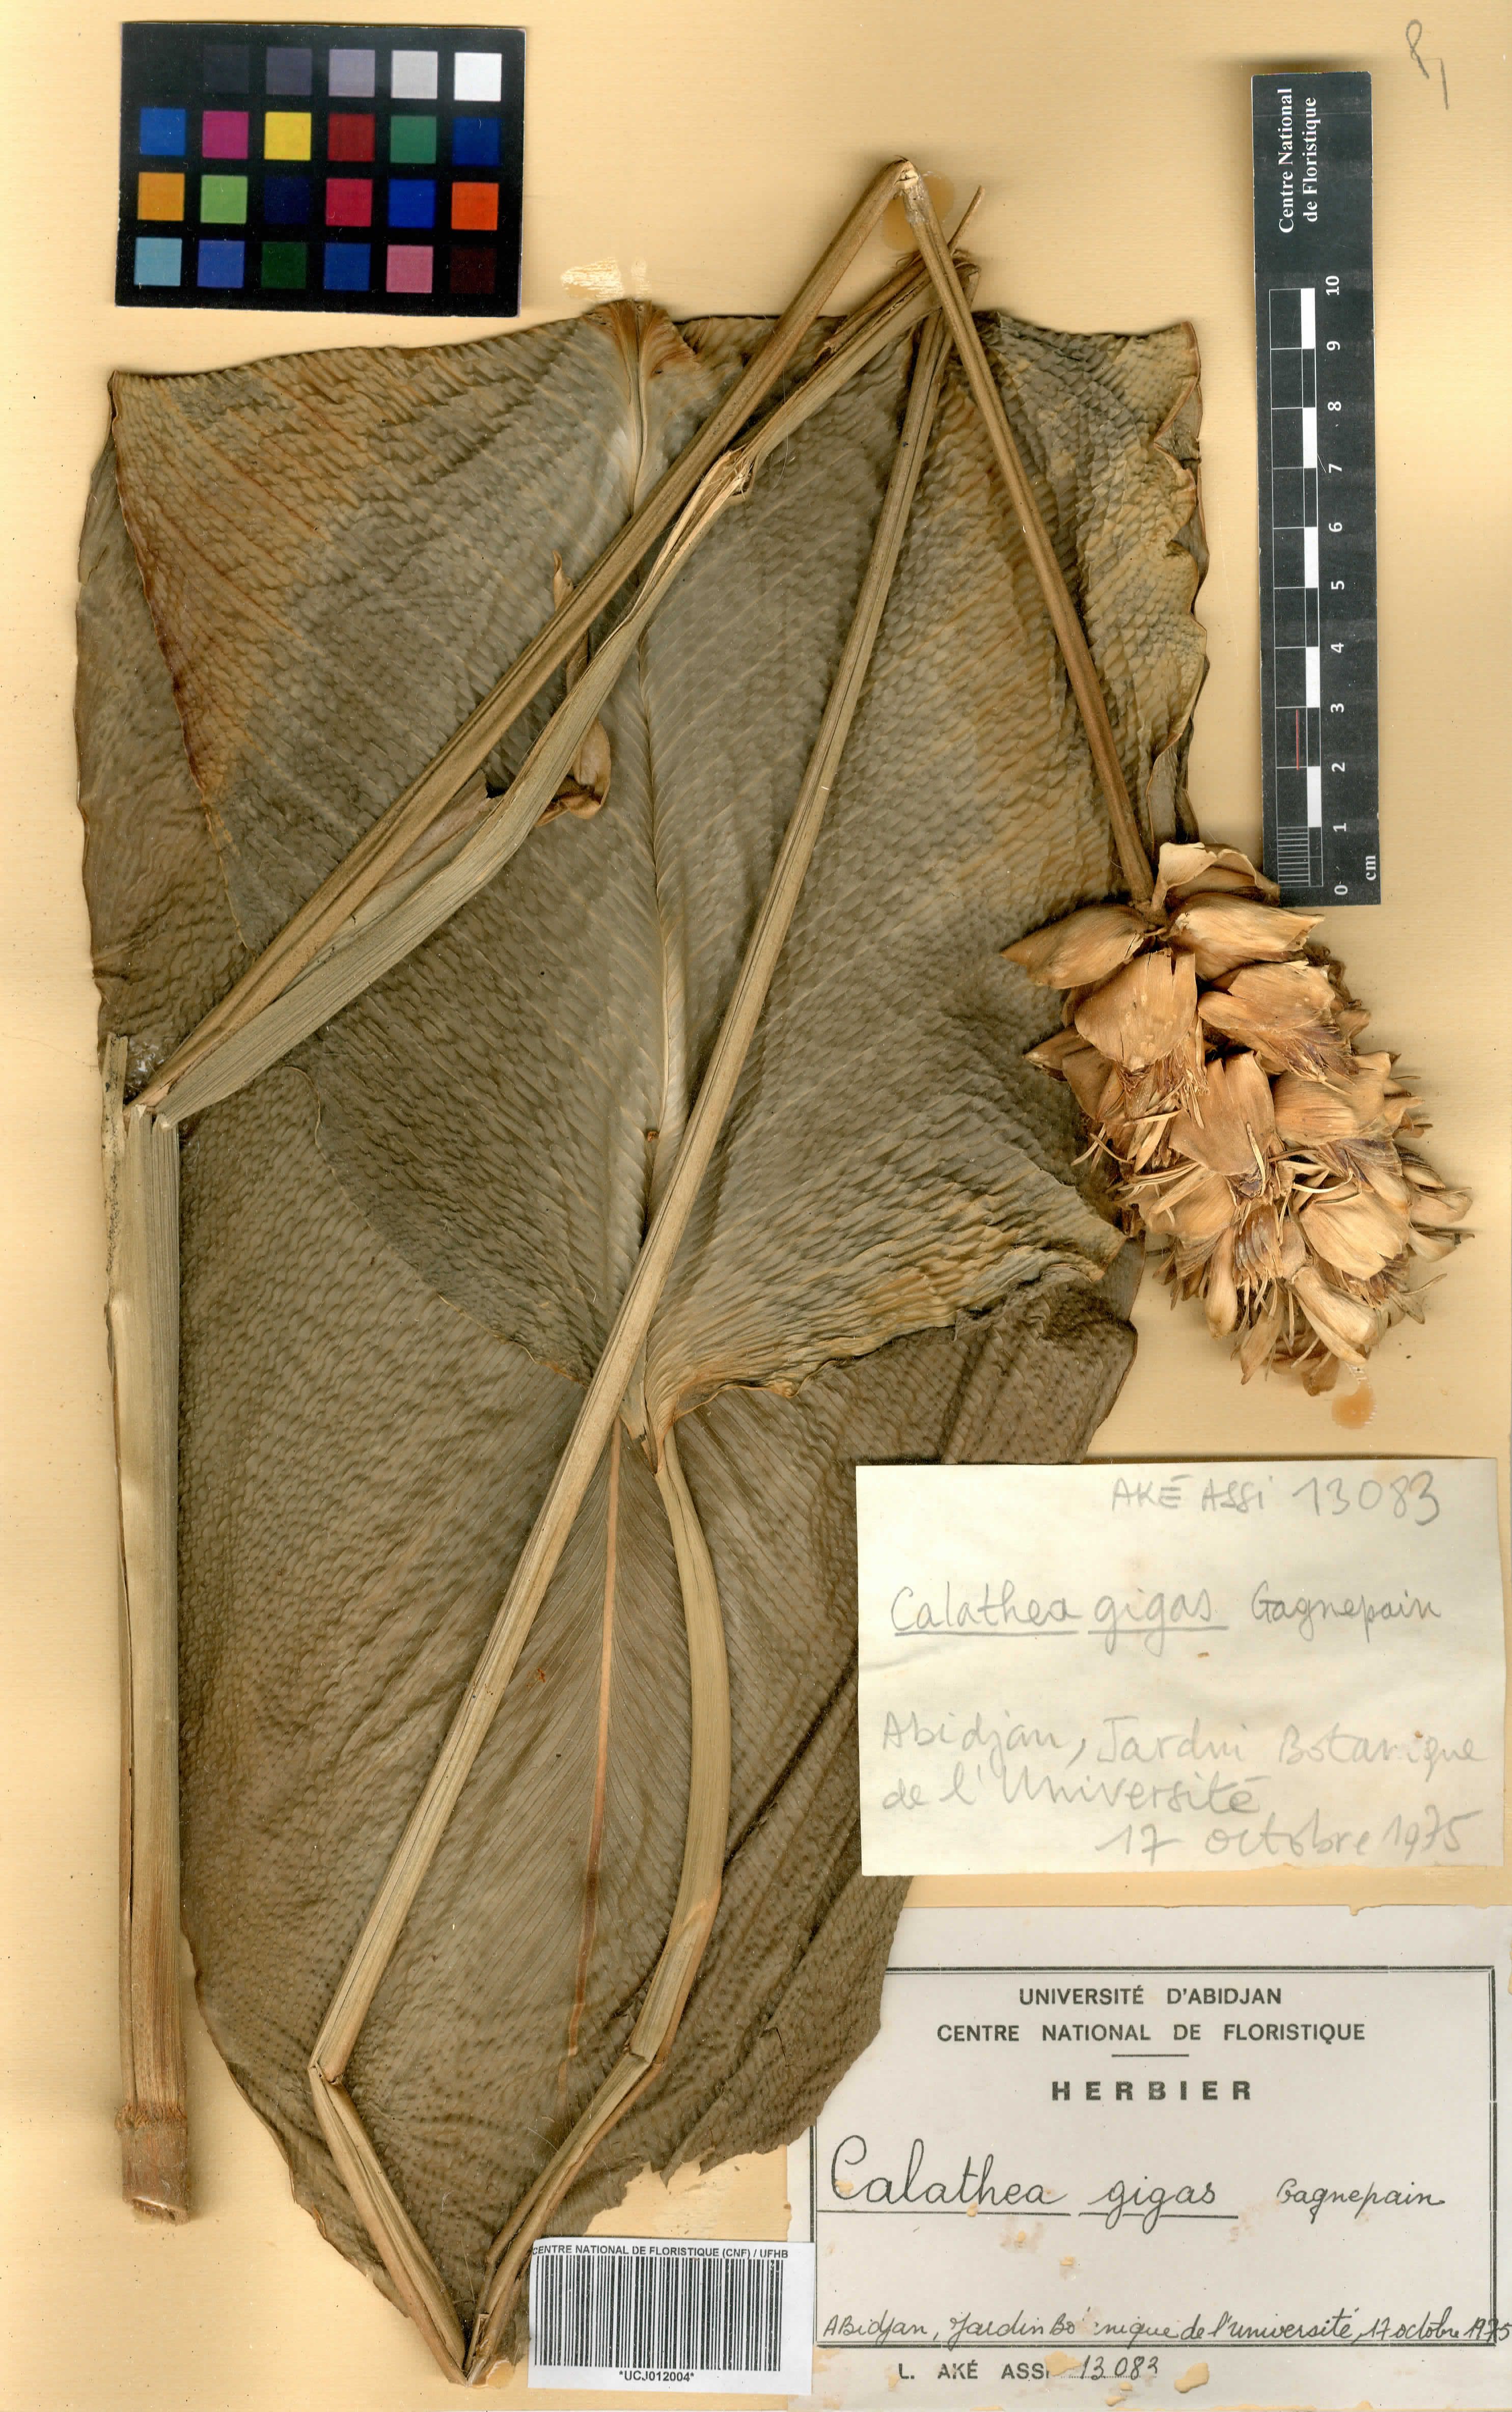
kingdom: Plantae
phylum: Tracheophyta
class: Liliopsida
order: Zingiberales
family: Marantaceae
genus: Goeppertia
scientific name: Goeppertia majestica
